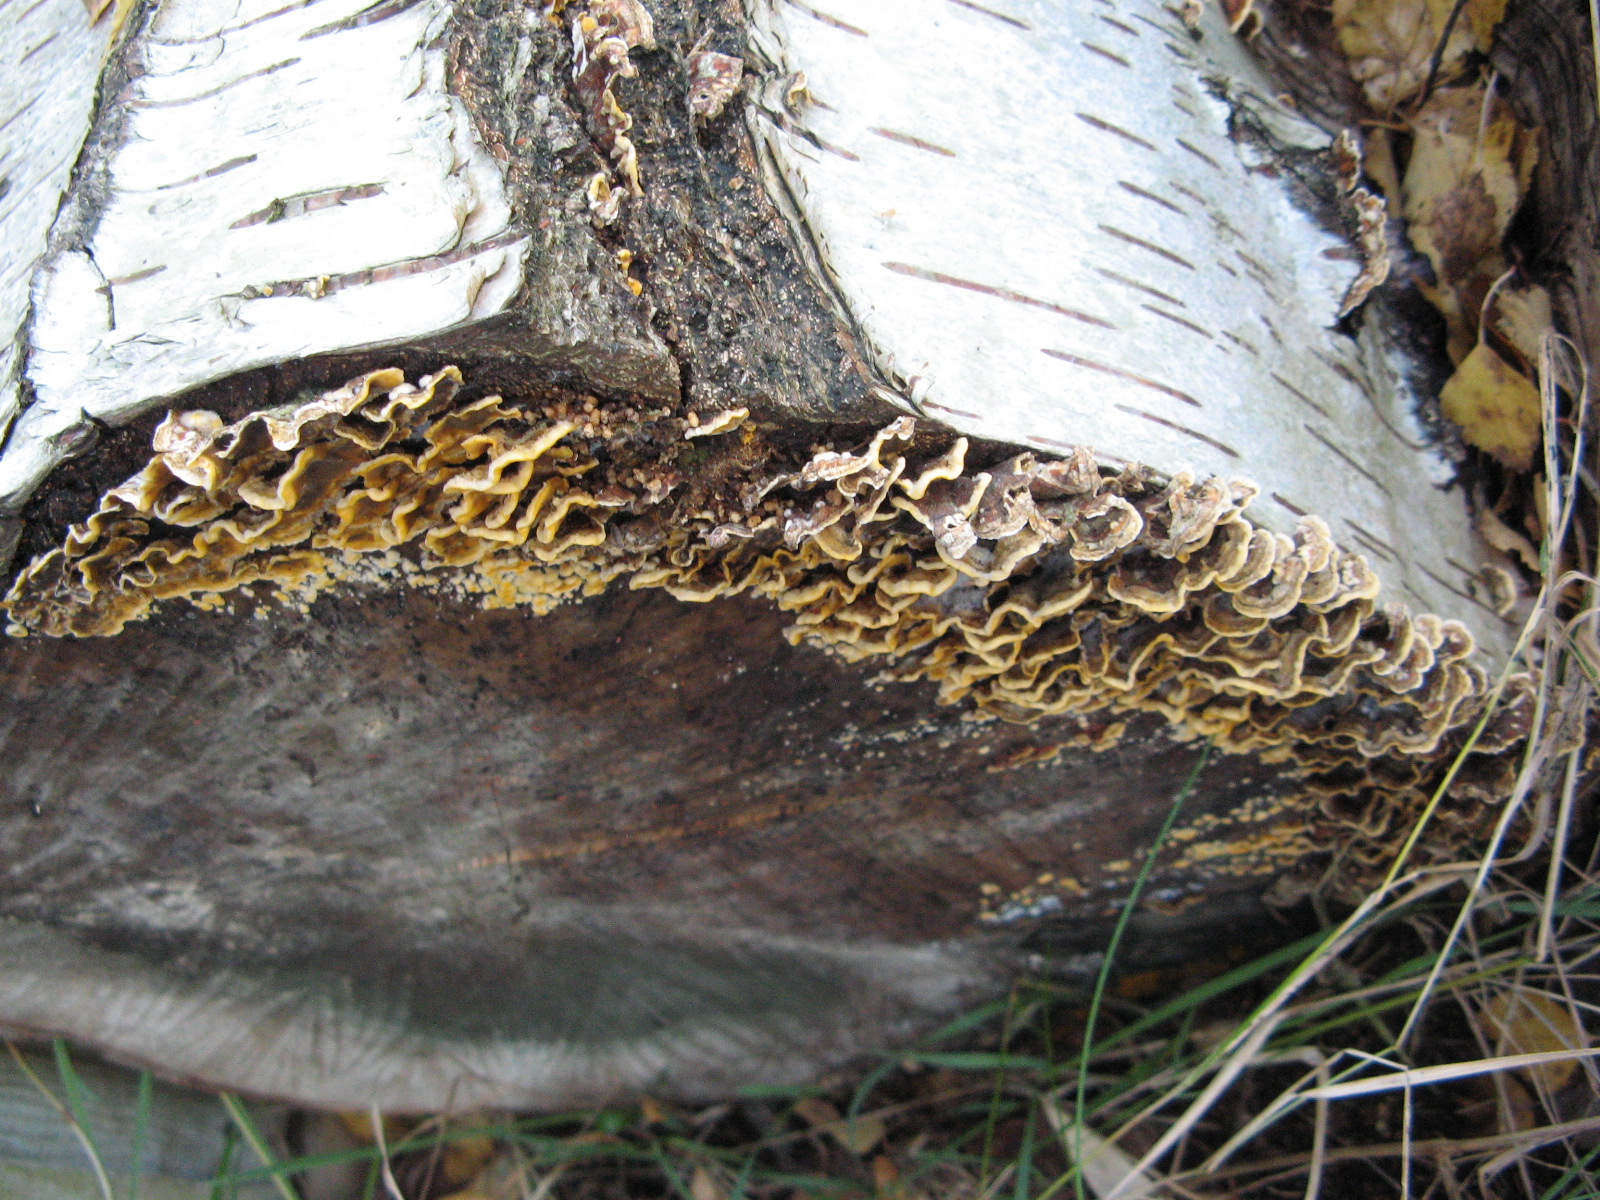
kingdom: Fungi
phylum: Basidiomycota
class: Agaricomycetes
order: Russulales
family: Stereaceae
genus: Stereum
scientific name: Stereum hirsutum
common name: håret lædersvamp
